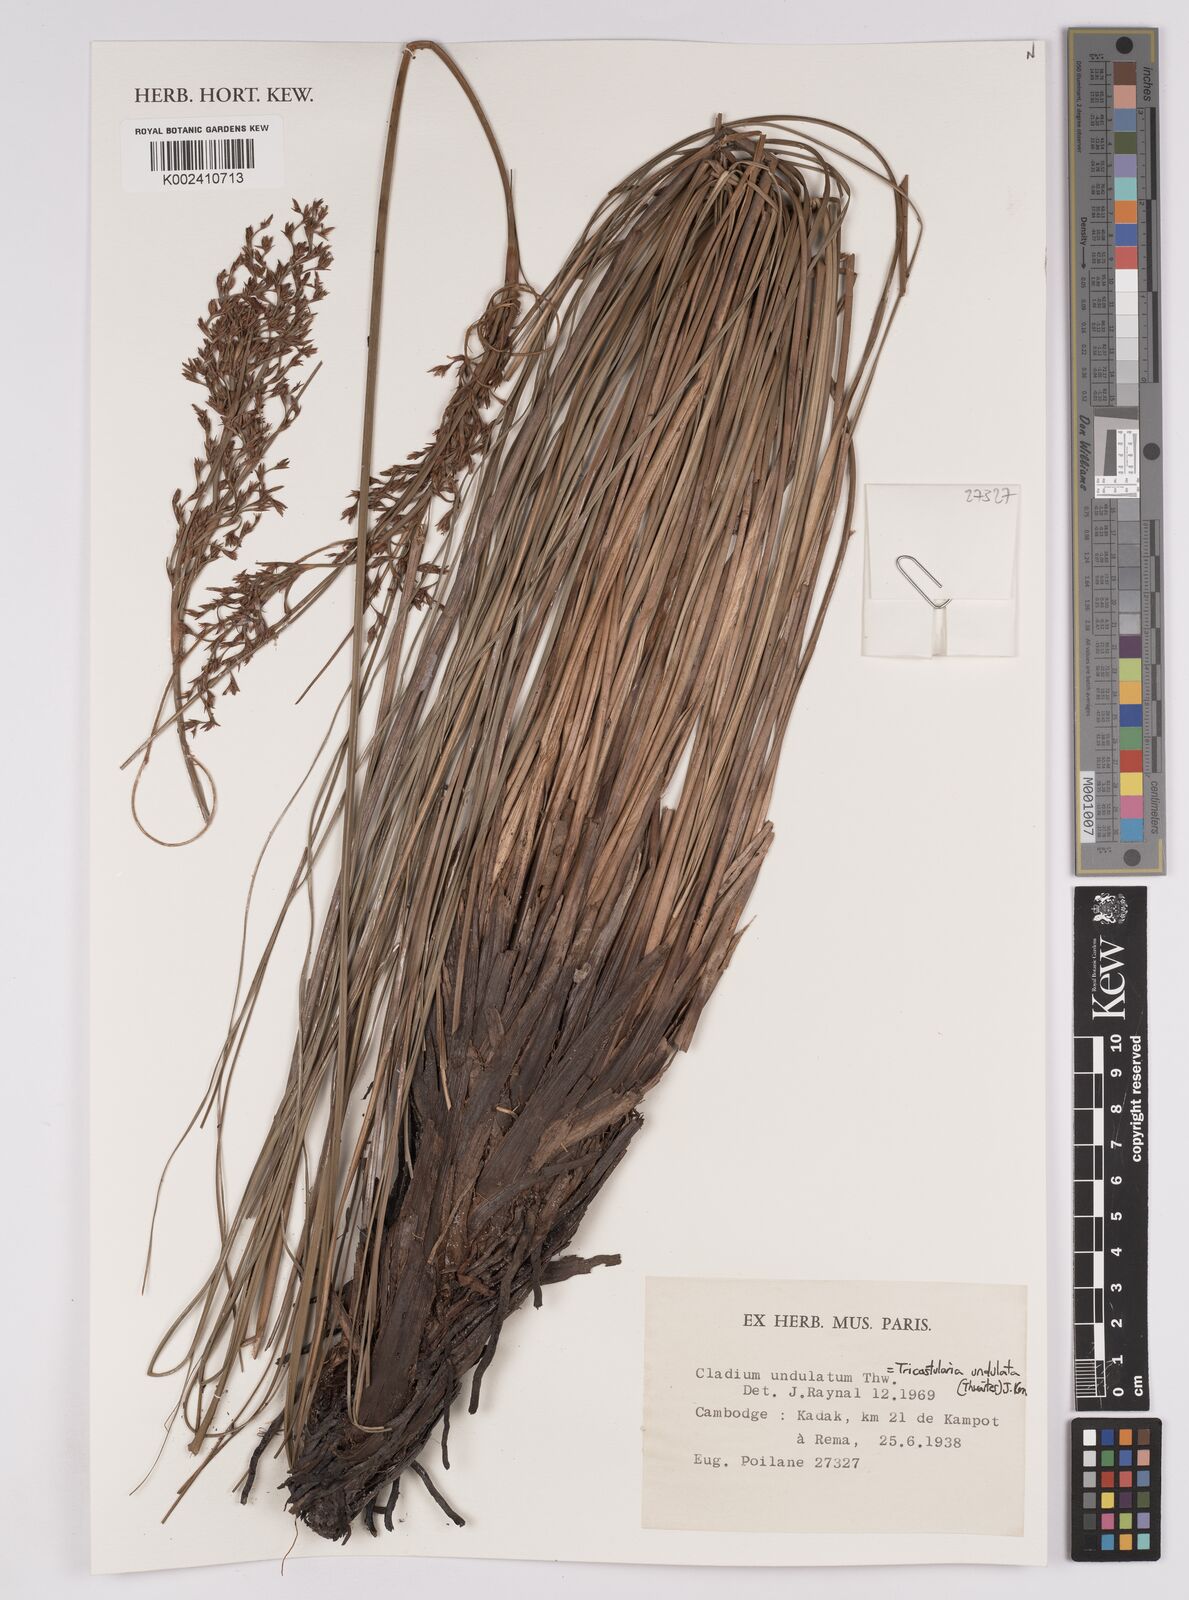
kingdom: Plantae
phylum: Tracheophyta
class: Liliopsida
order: Poales
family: Cyperaceae
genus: Anthelepis
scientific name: Anthelepis undulata
